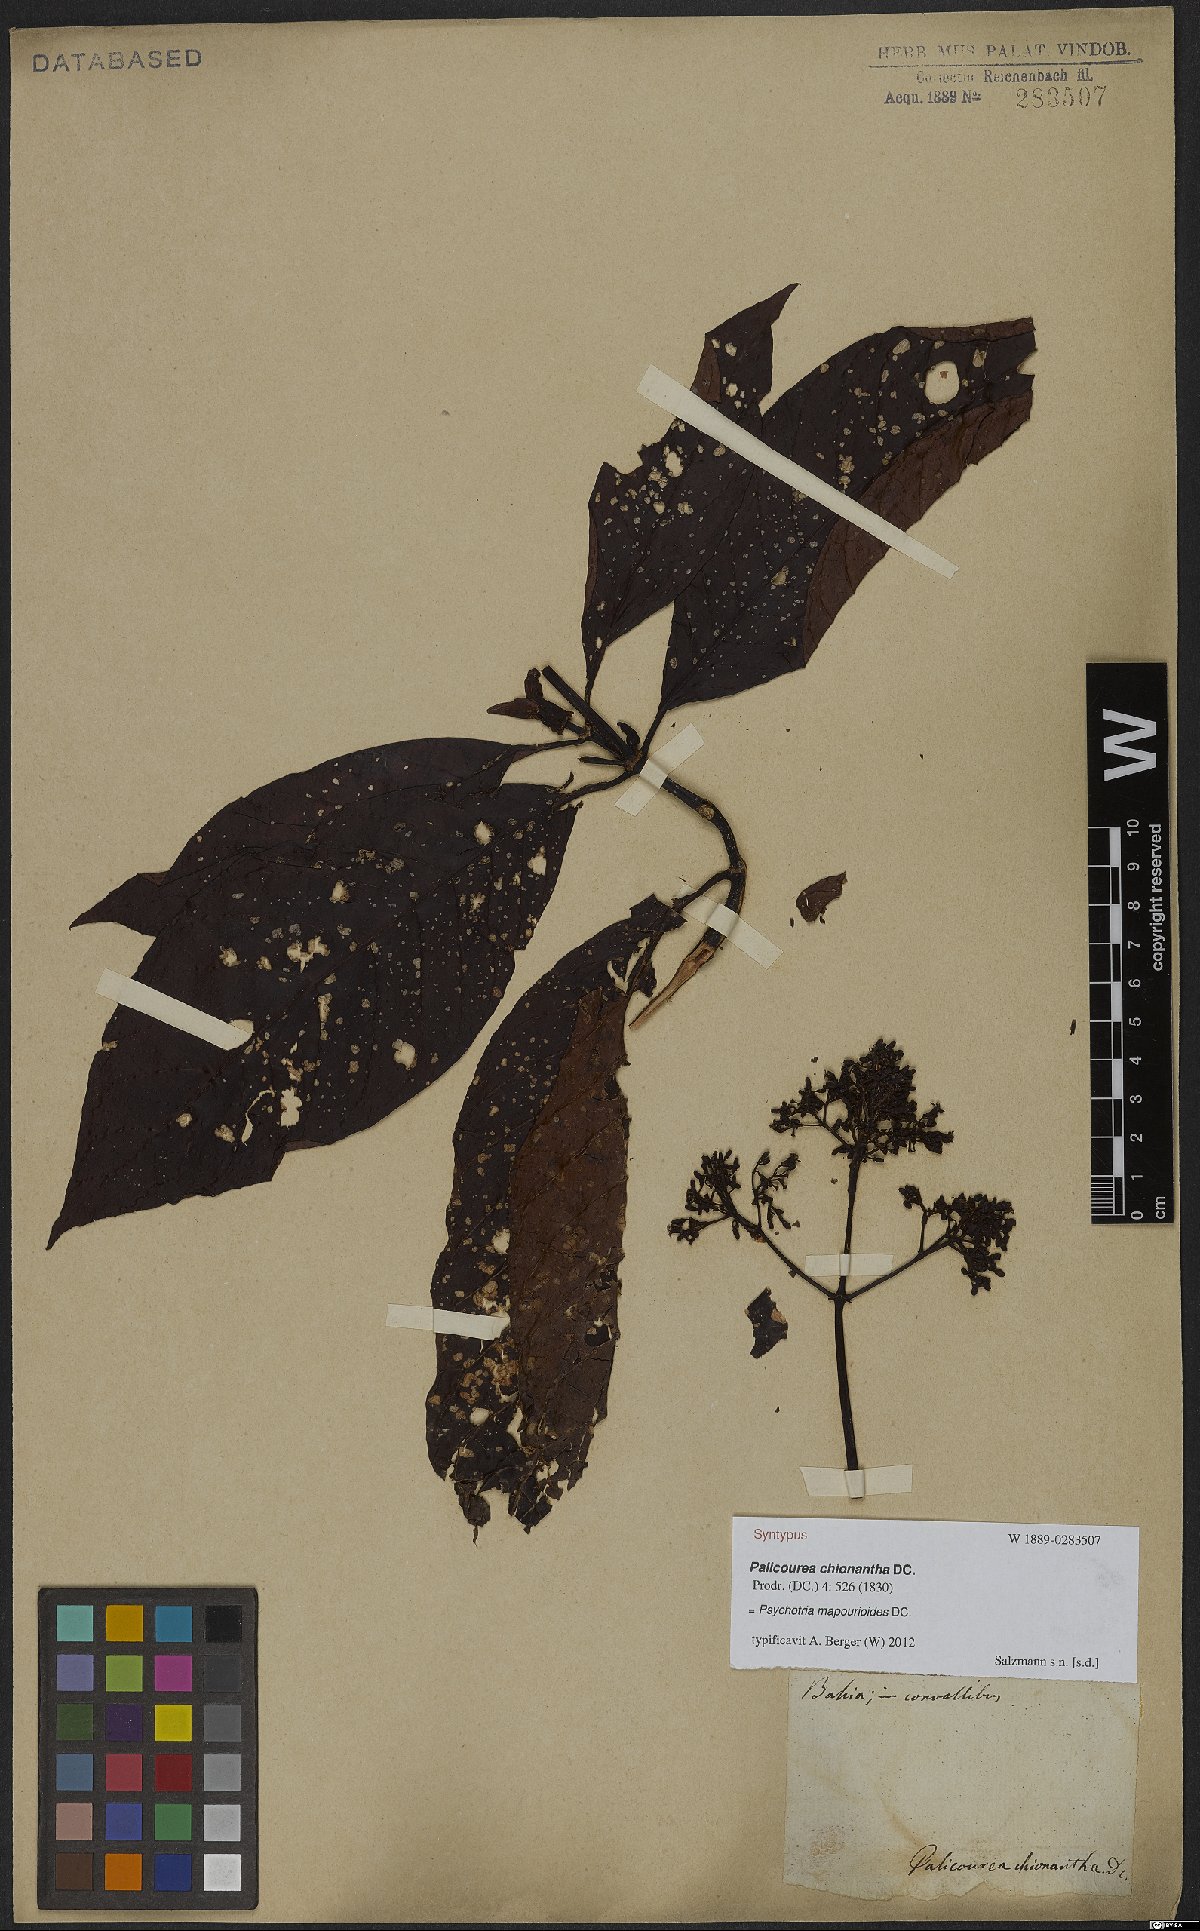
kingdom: Plantae
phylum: Tracheophyta
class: Magnoliopsida
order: Gentianales
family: Rubiaceae
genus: Psychotria
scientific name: Psychotria pedunculosa
